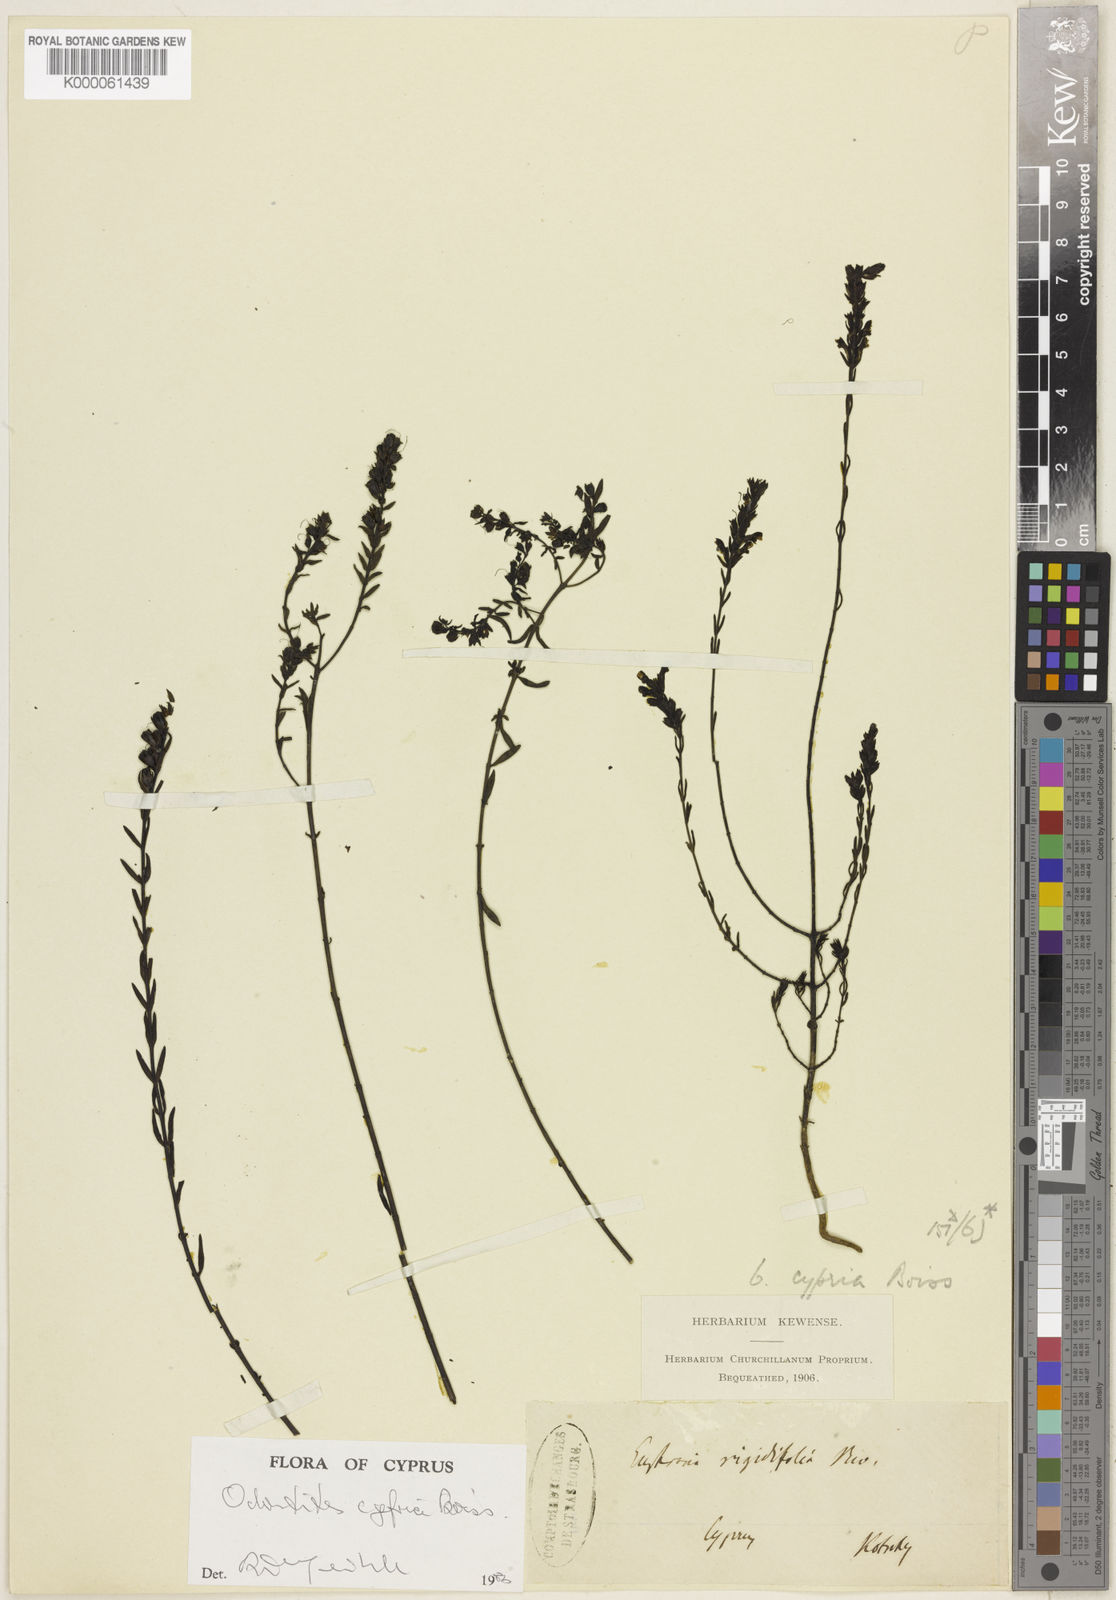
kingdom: Plantae
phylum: Tracheophyta
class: Magnoliopsida
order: Lamiales
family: Orobanchaceae
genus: Odontites
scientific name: Odontites
